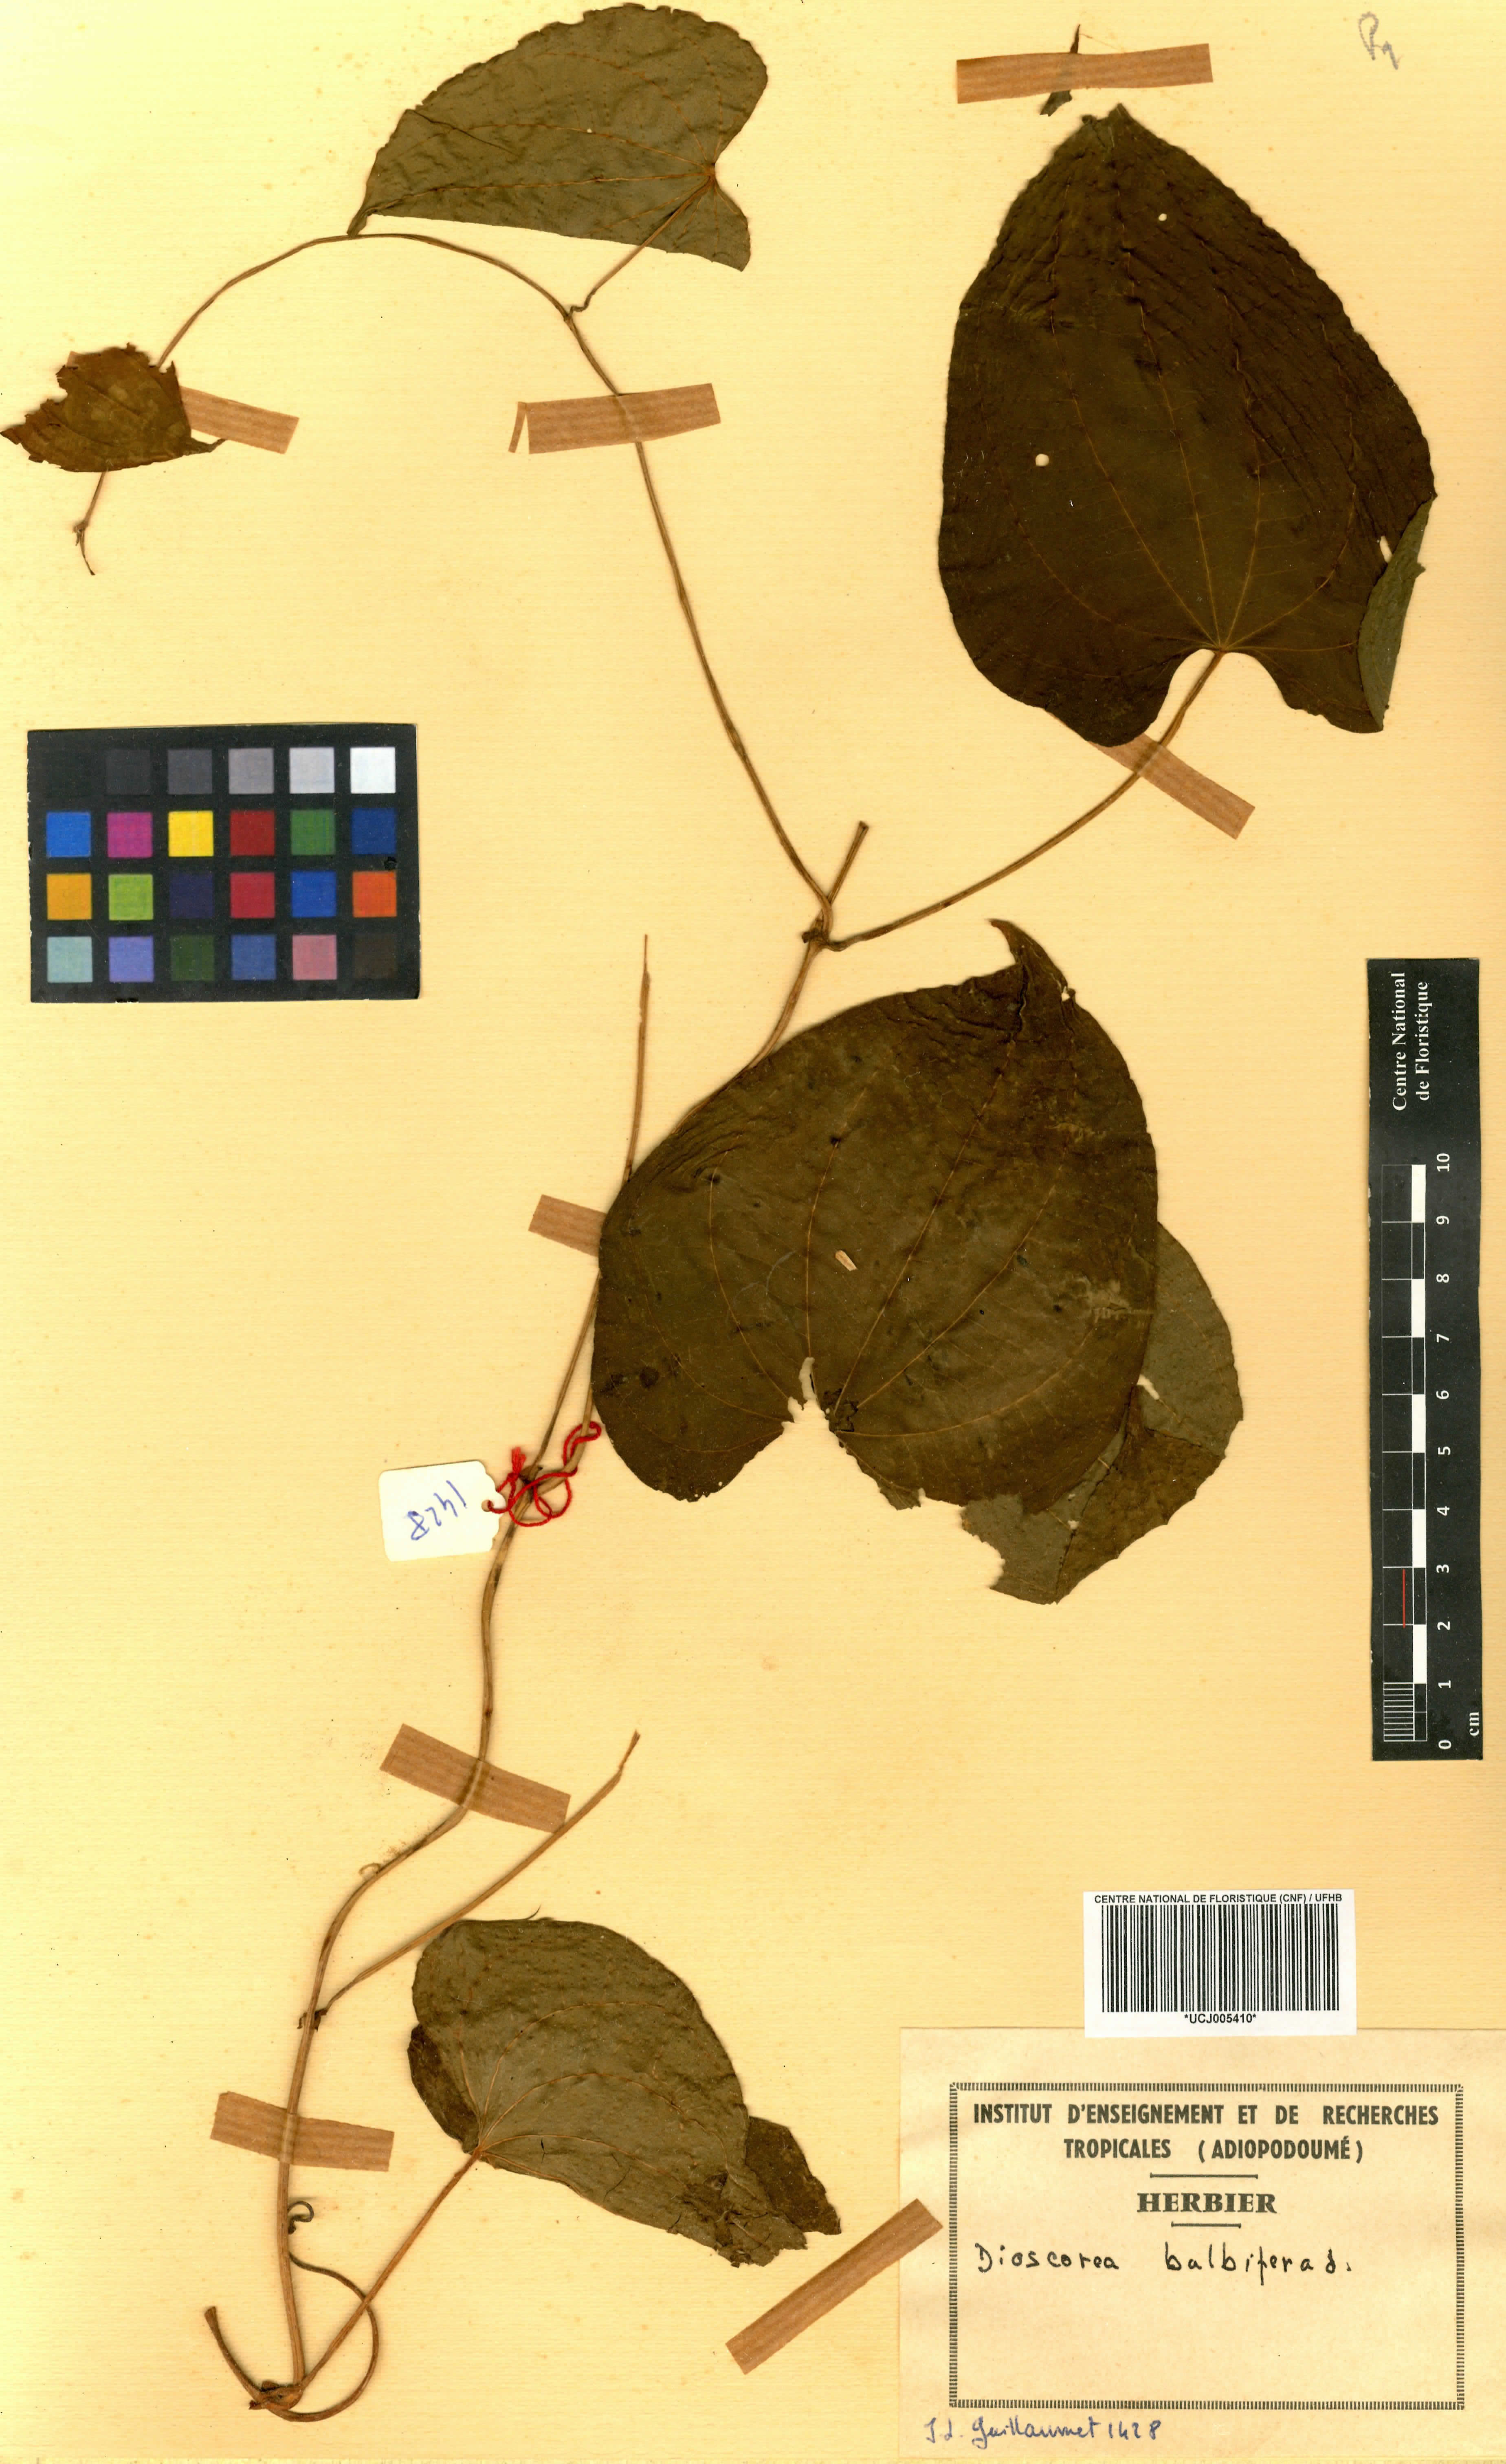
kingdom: Plantae
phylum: Tracheophyta
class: Liliopsida
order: Dioscoreales
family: Dioscoreaceae
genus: Dioscorea
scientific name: Dioscorea bulbifera
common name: Air yam
